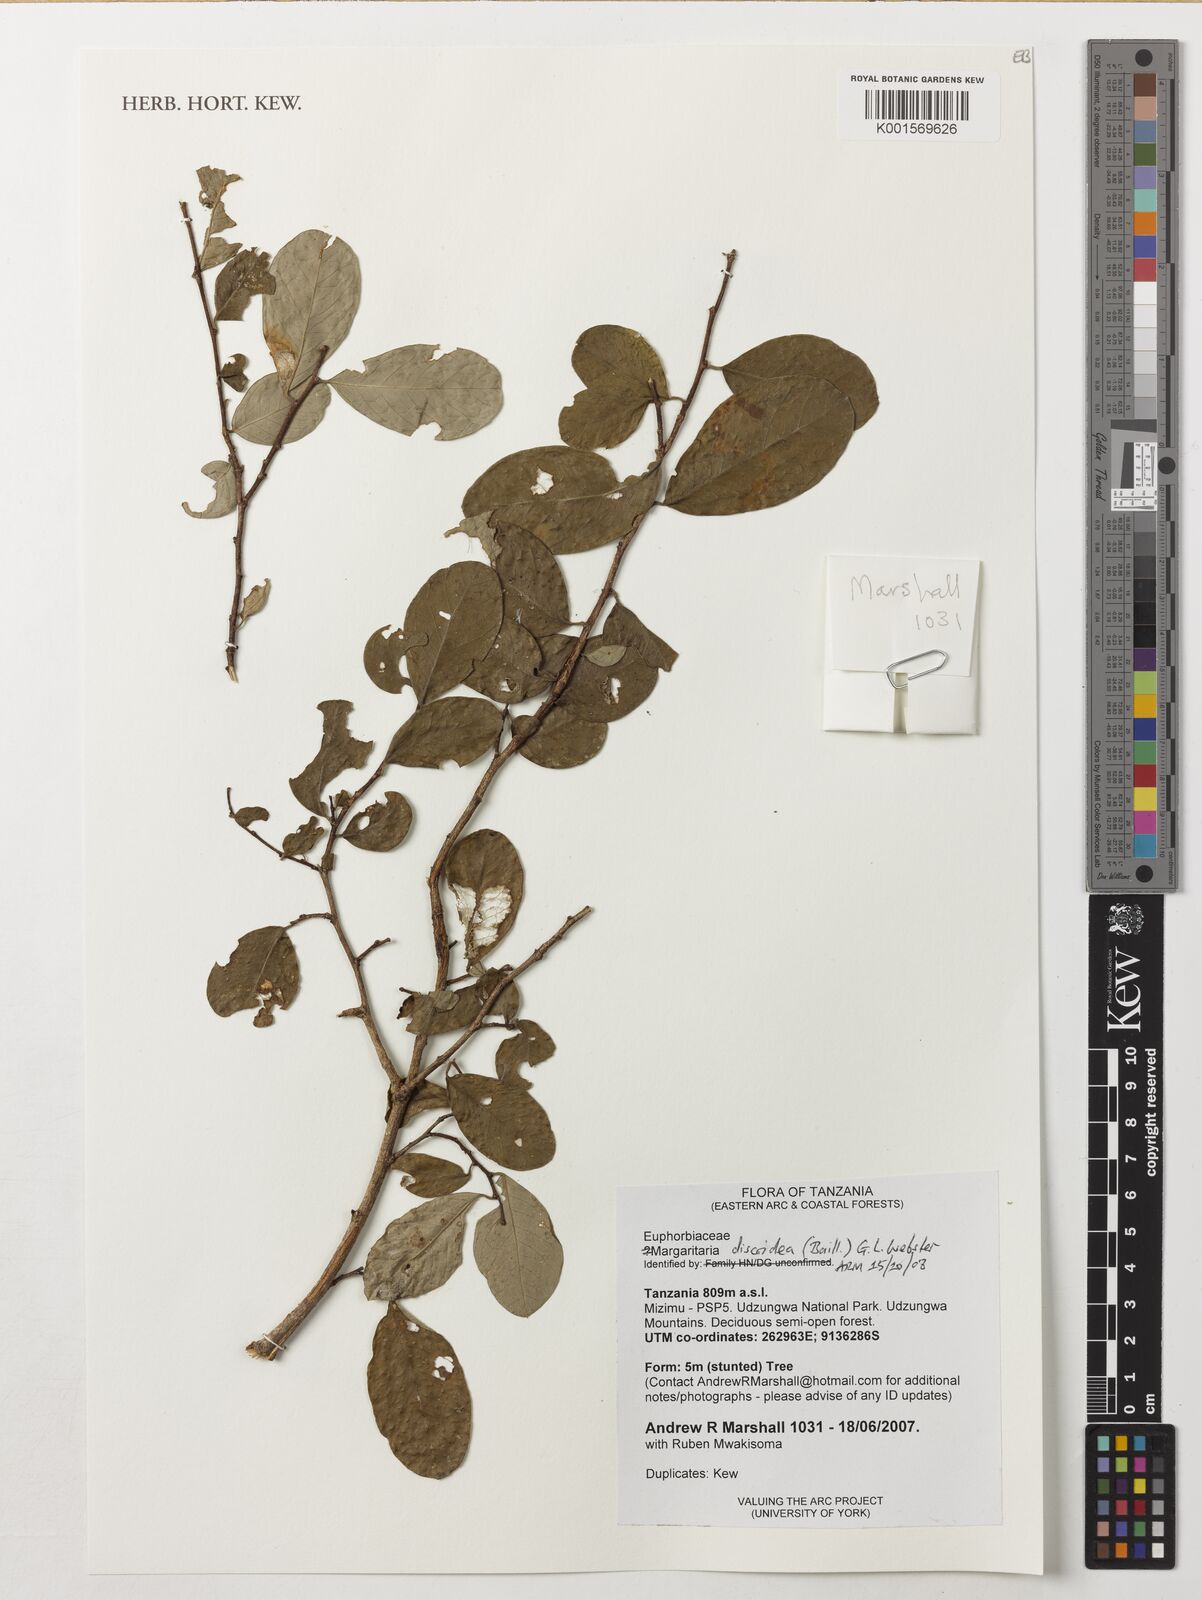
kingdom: Plantae
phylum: Tracheophyta
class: Magnoliopsida
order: Malpighiales
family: Phyllanthaceae
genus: Margaritaria
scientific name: Margaritaria discoidea
